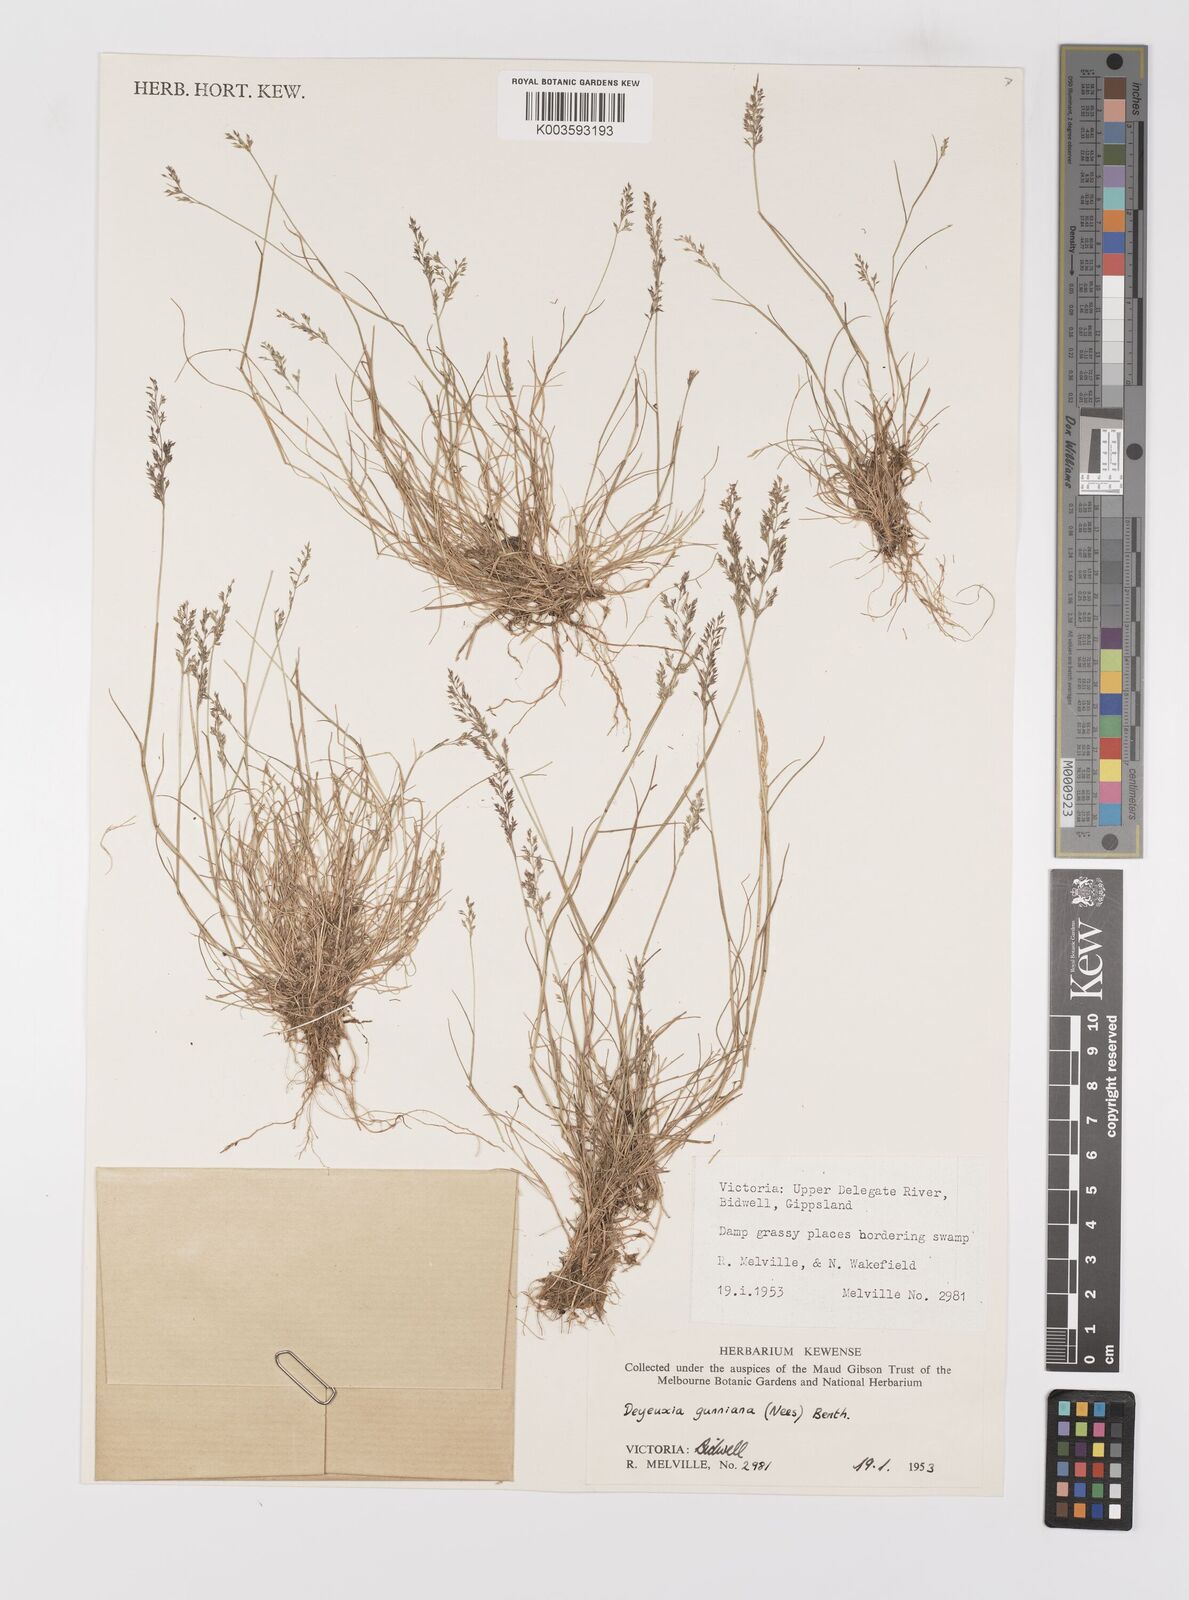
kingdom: Plantae
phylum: Tracheophyta
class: Liliopsida
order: Poales
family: Poaceae
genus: Ancistragrostis
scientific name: Ancistragrostis
